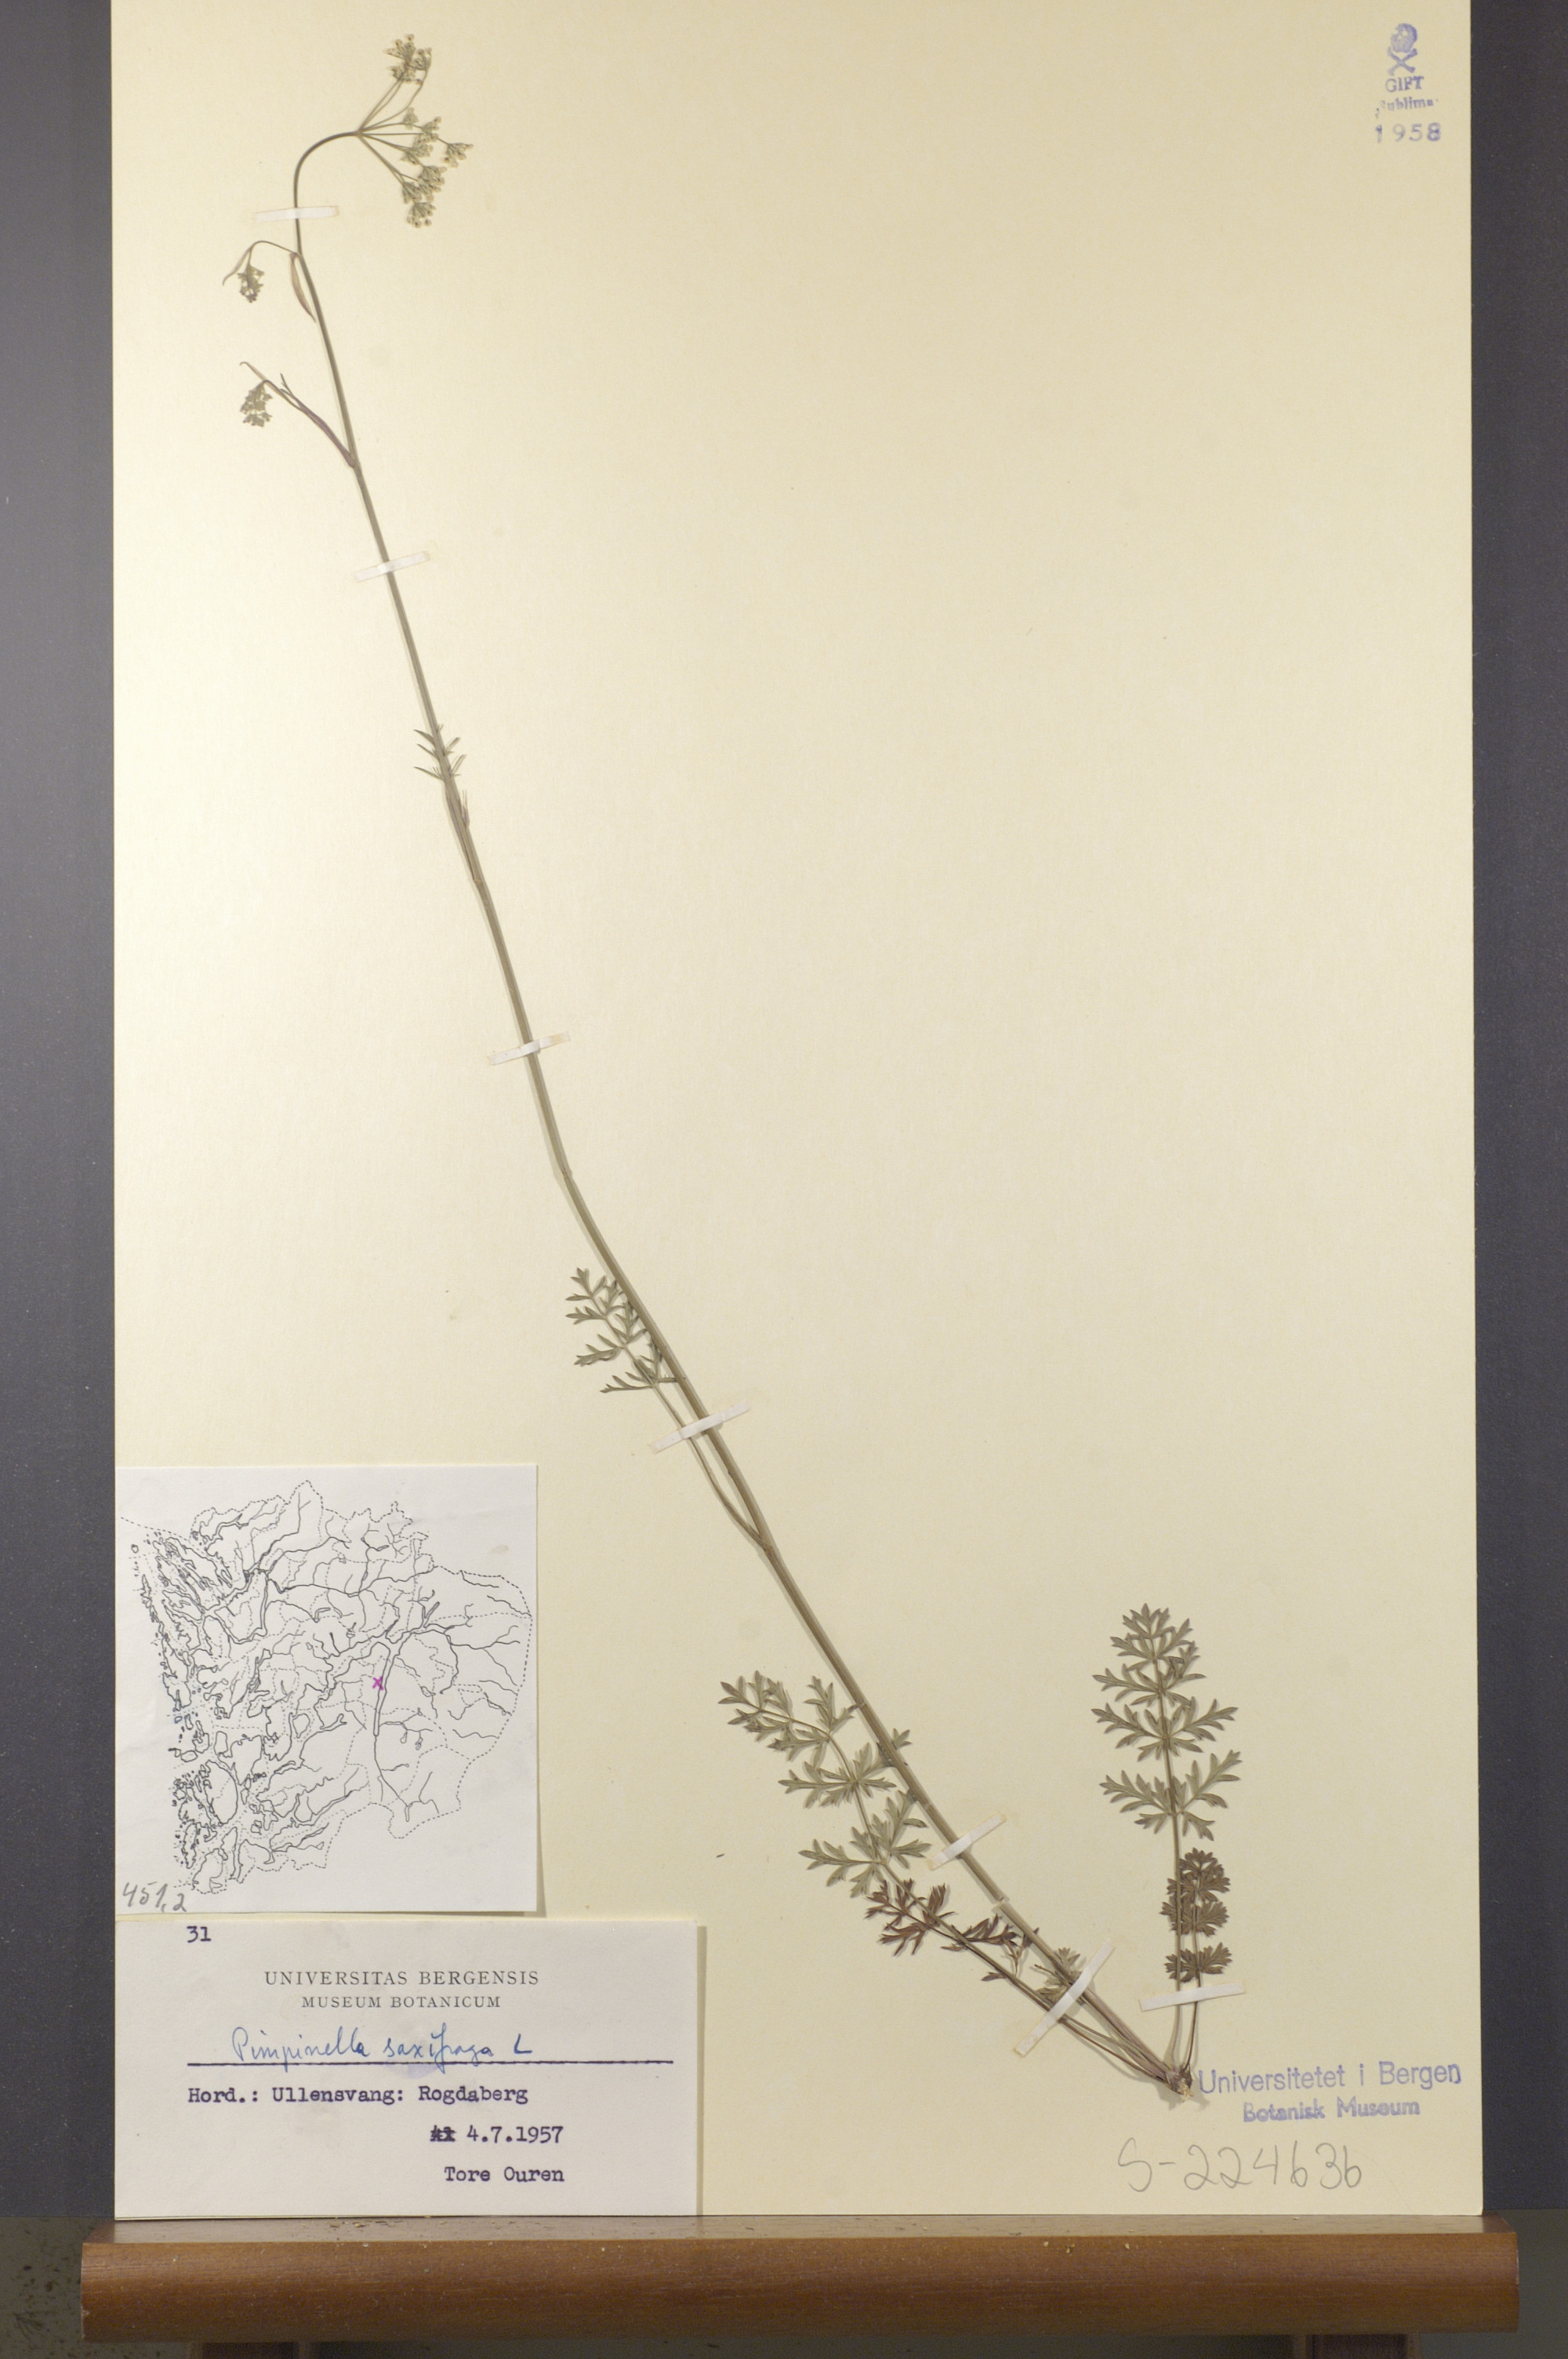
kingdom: Plantae
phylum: Tracheophyta
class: Magnoliopsida
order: Apiales
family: Apiaceae
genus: Pimpinella
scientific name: Pimpinella saxifraga
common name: Burnet-saxifrage
